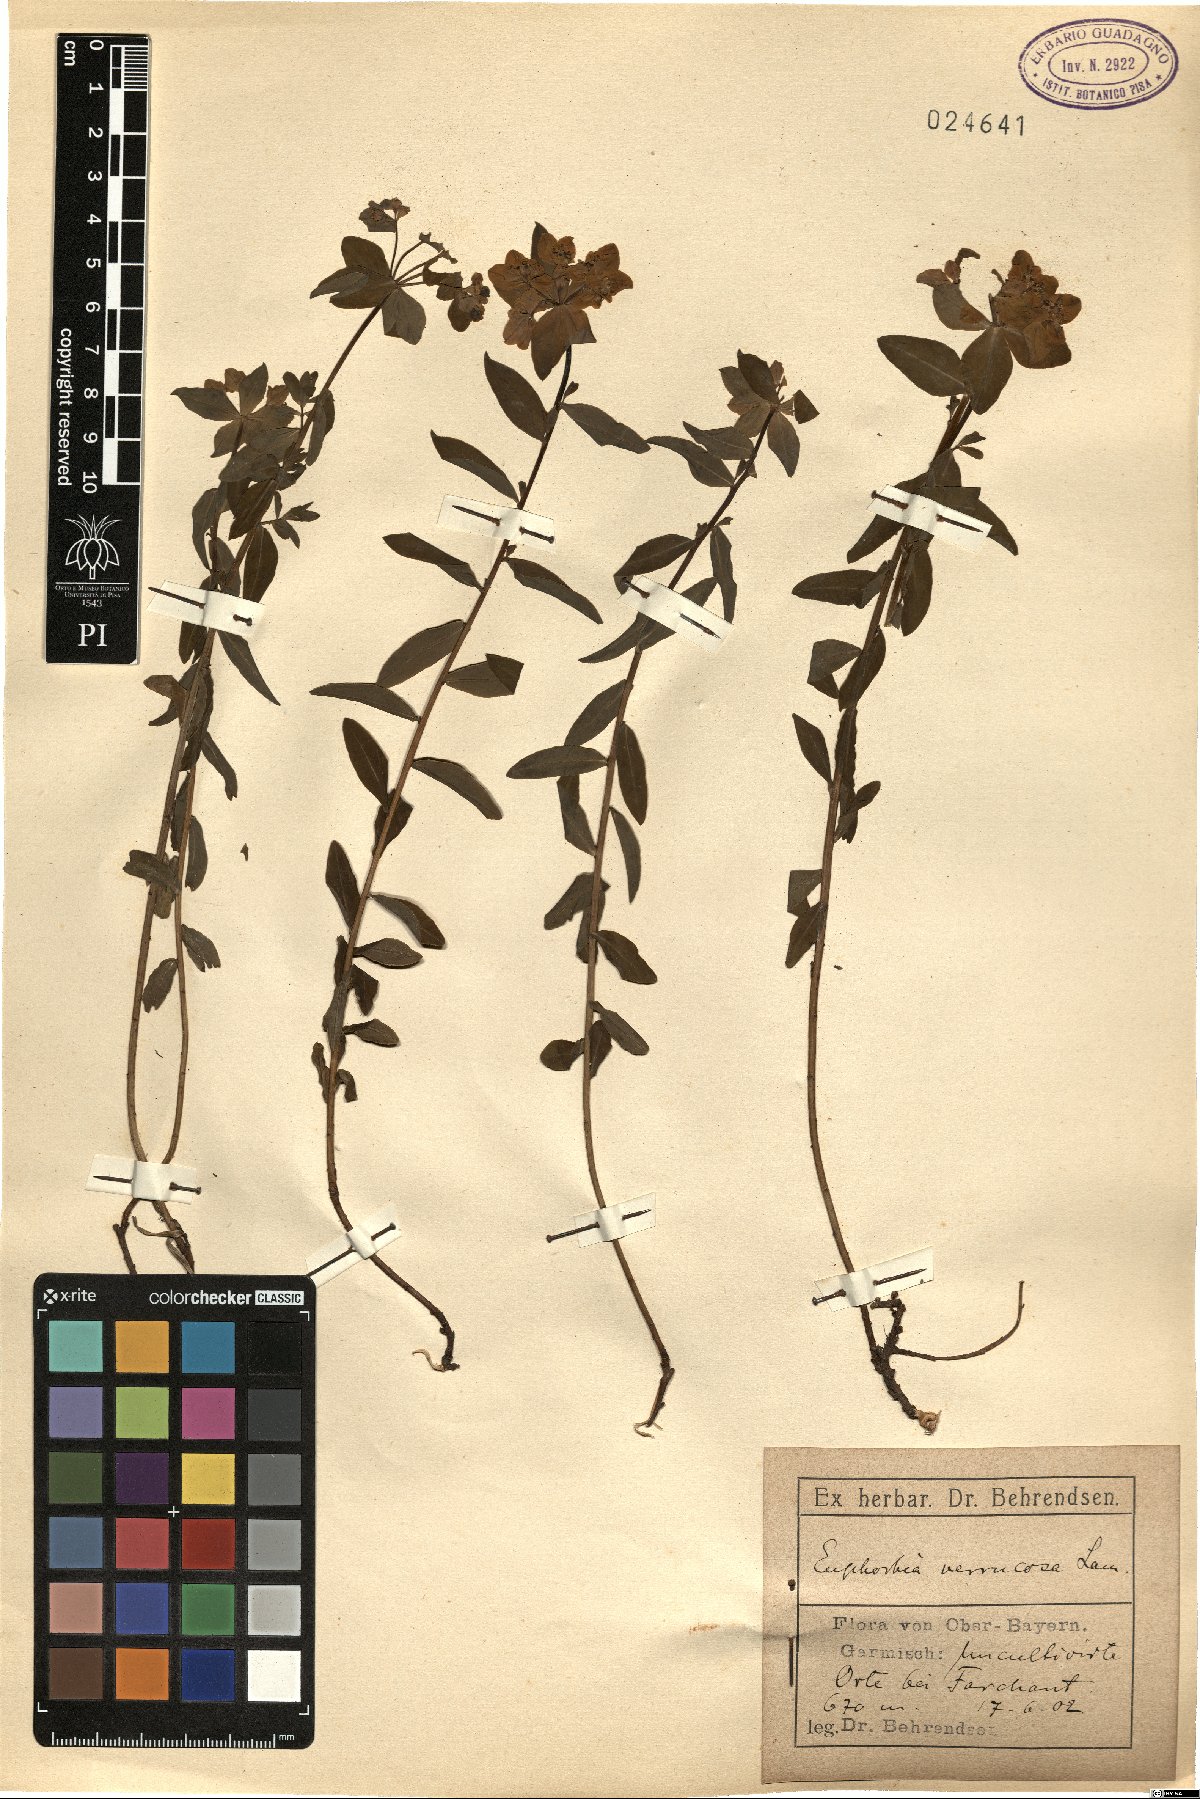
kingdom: Plantae
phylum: Tracheophyta
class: Magnoliopsida
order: Malpighiales
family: Euphorbiaceae
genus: Euphorbia
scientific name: Euphorbia verrucosa
